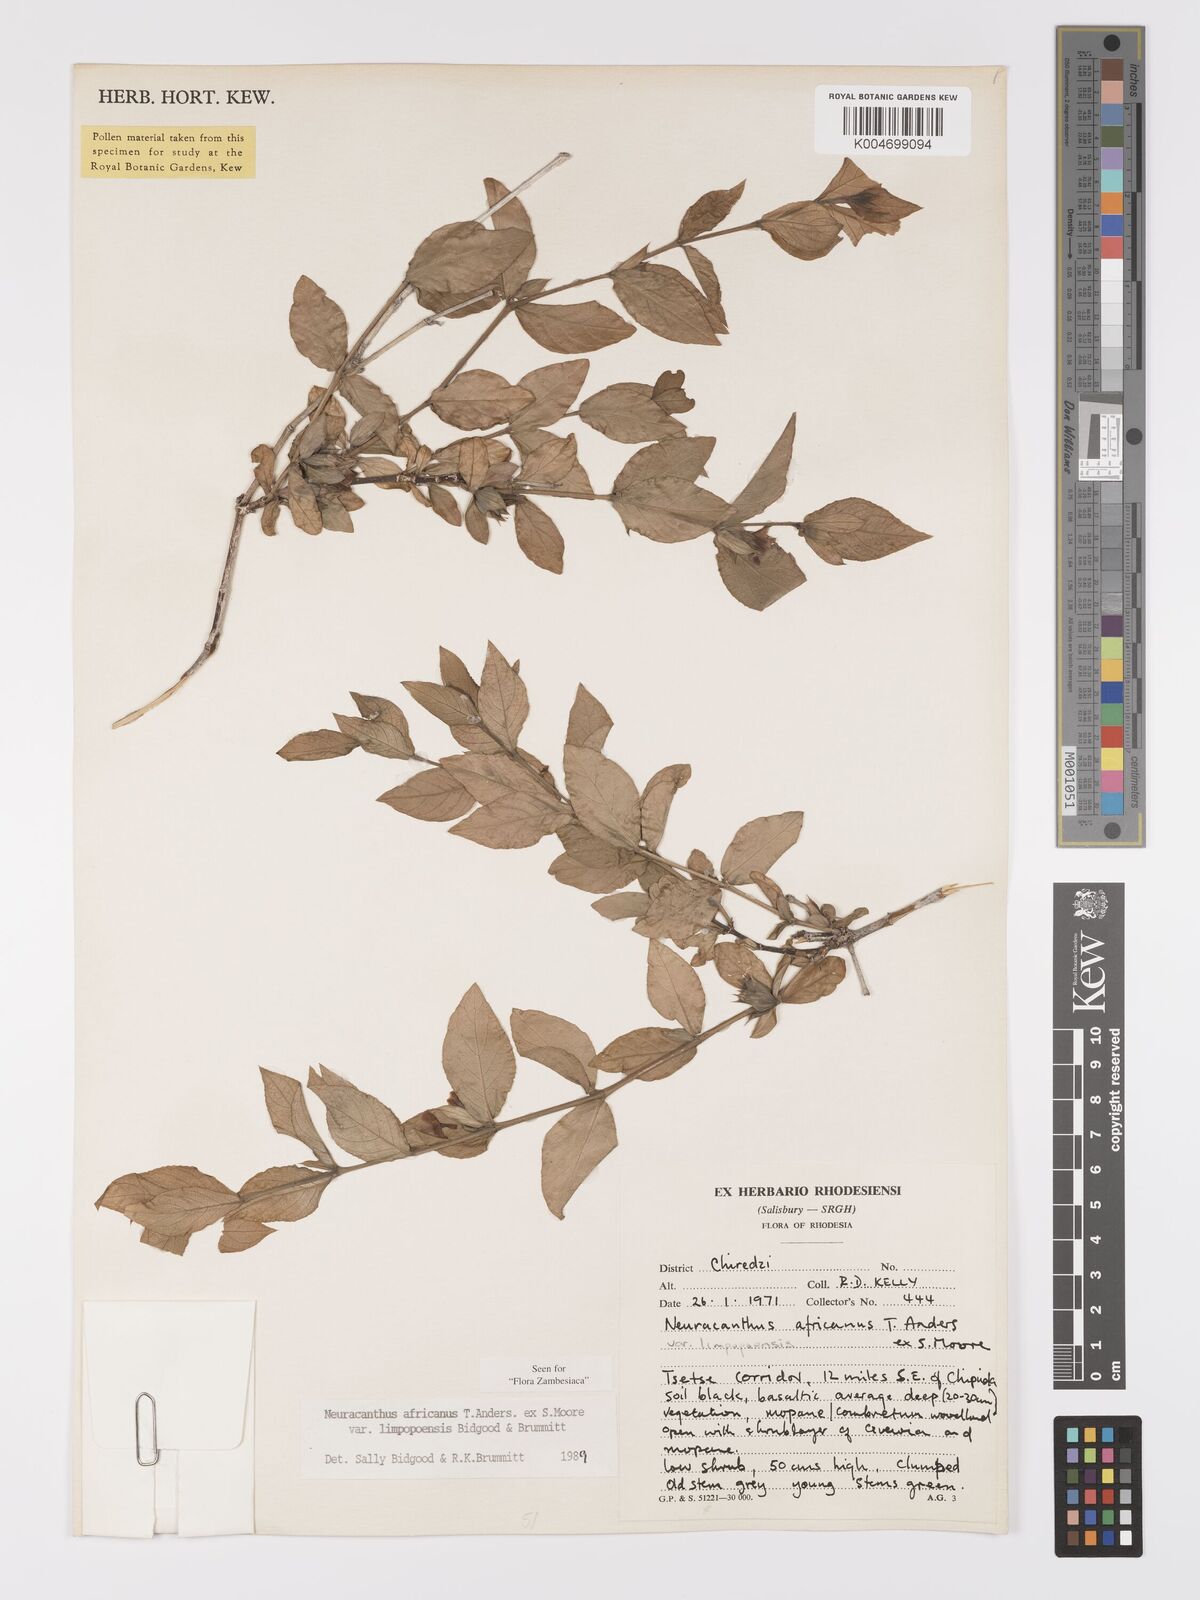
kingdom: Plantae
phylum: Tracheophyta
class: Magnoliopsida
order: Lamiales
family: Acanthaceae
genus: Neuracanthus
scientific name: Neuracanthus africanus
